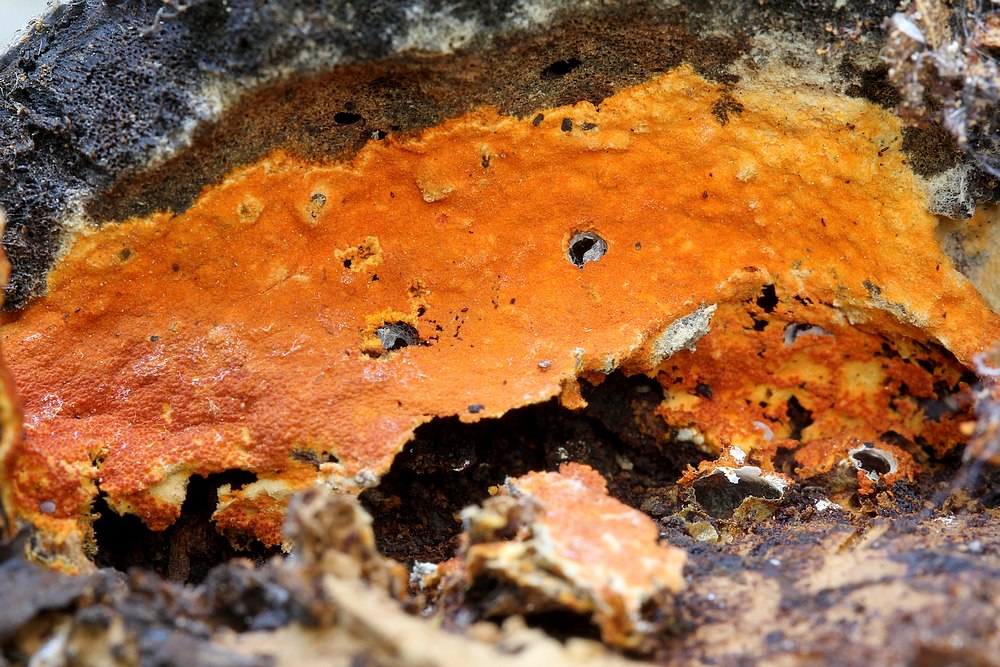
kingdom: Fungi
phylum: Ascomycota
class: Sordariomycetes
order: Hypocreales
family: Hypocreaceae
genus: Hypomyces
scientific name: Hypomyces aurantius
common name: almindelig snylteskorpe
